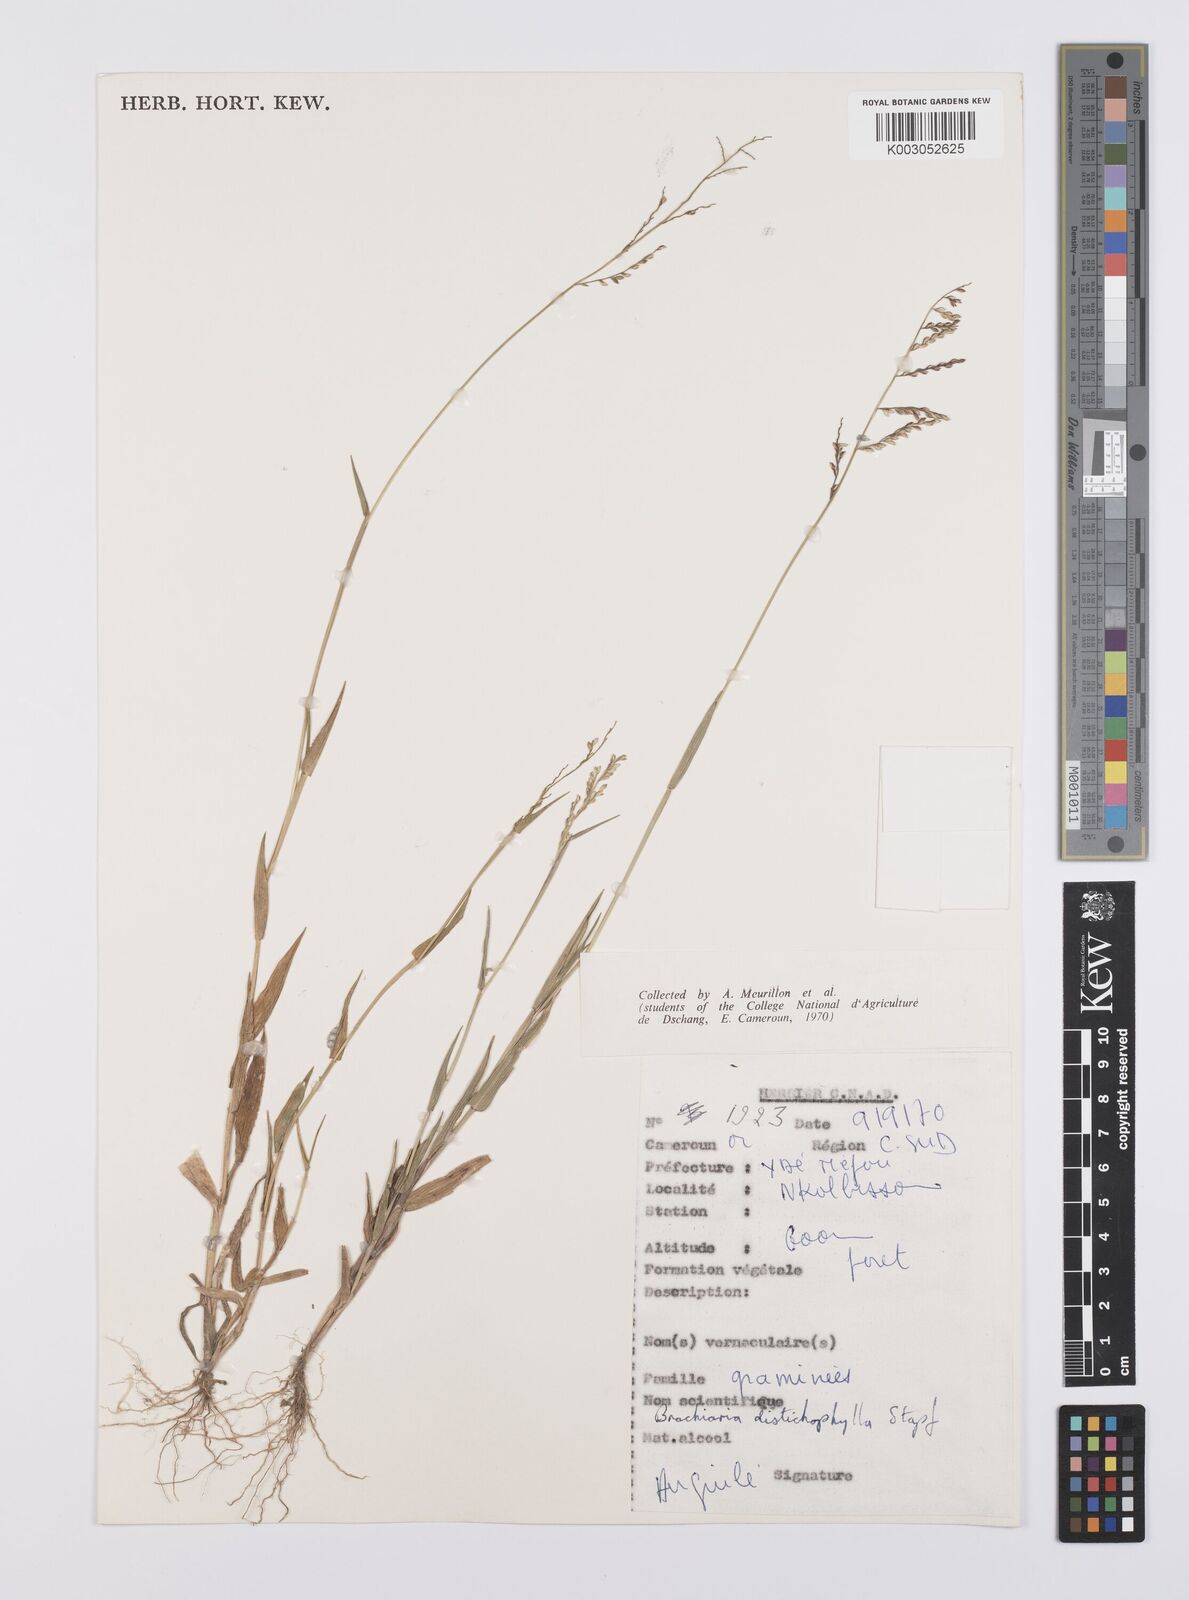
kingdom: Plantae
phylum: Tracheophyta
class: Liliopsida
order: Poales
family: Poaceae
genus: Urochloa
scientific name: Urochloa villosa
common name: Hairy signalgrass
